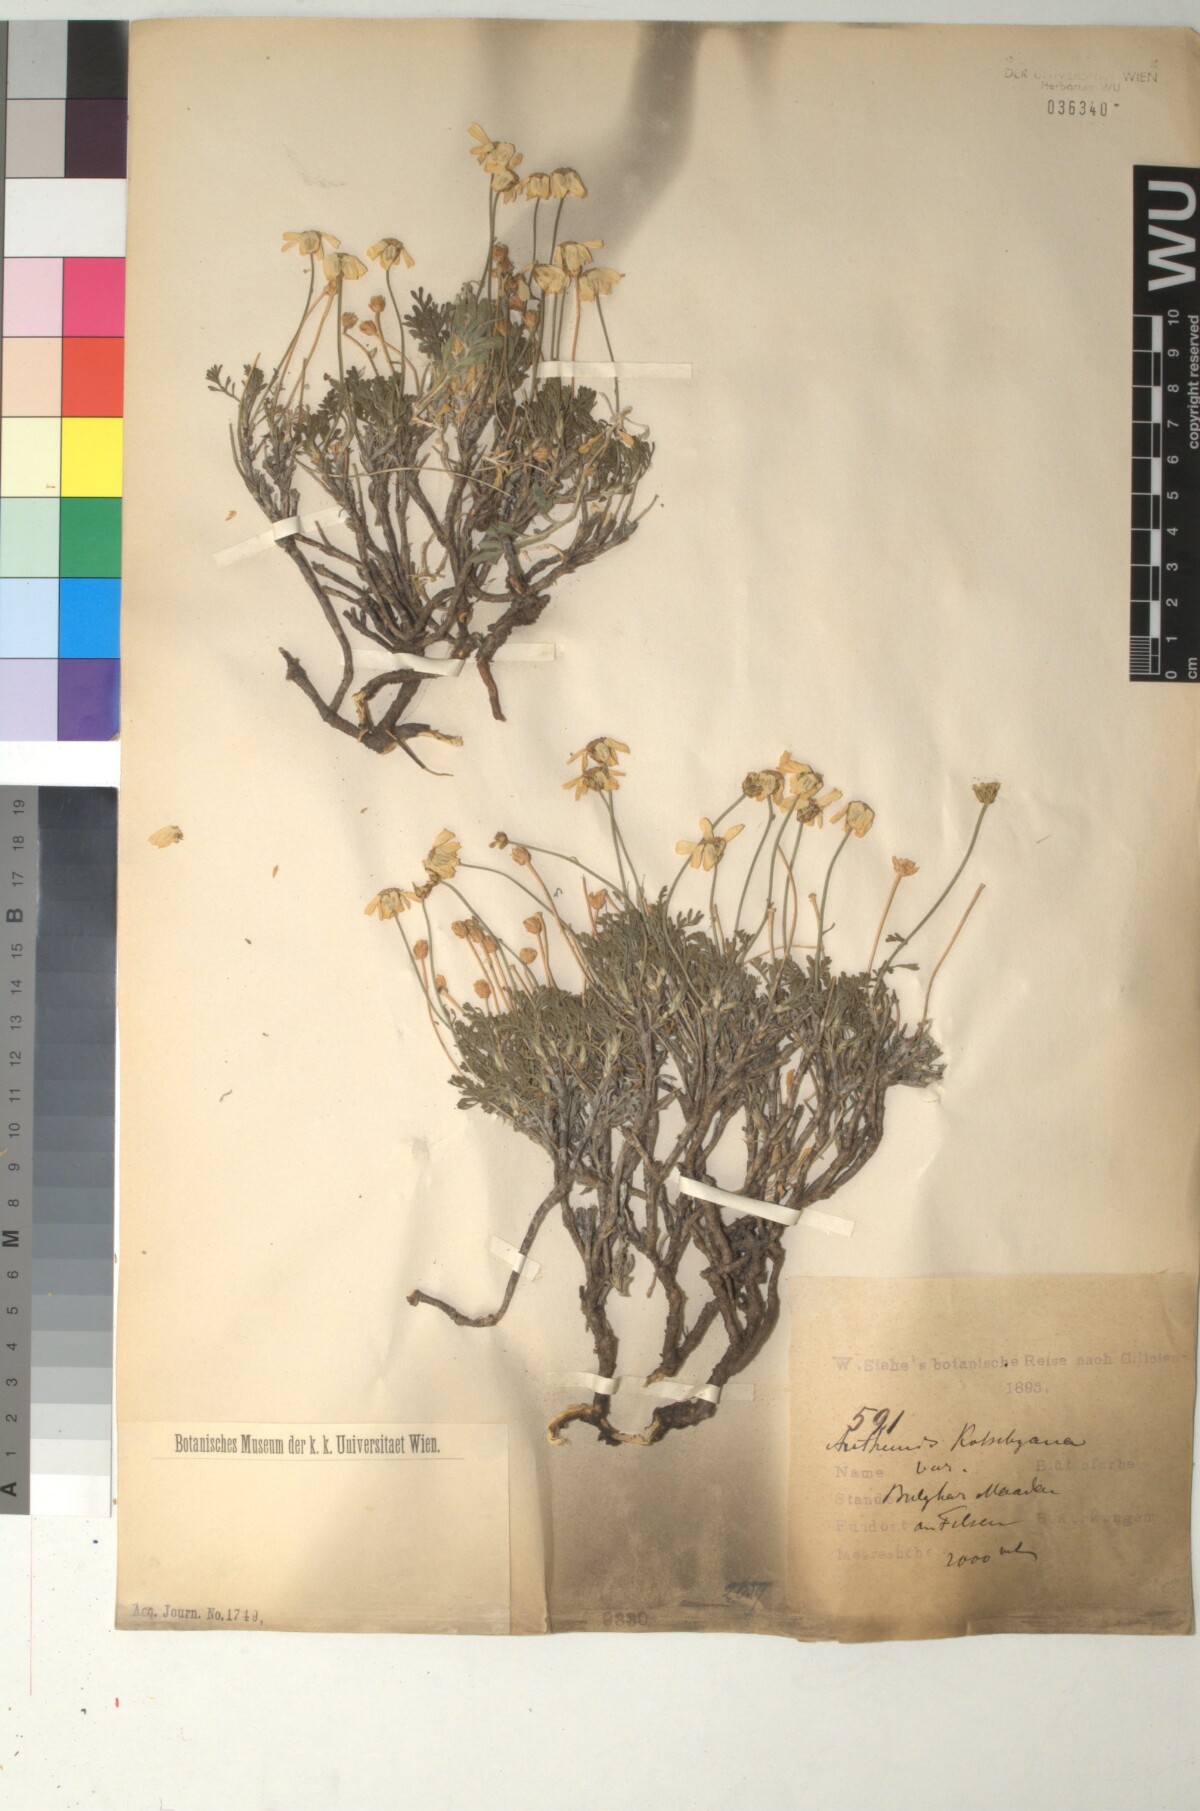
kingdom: Plantae
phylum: Tracheophyta
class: Magnoliopsida
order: Asterales
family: Asteraceae
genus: Anthemis
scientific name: Anthemis kotschyana
